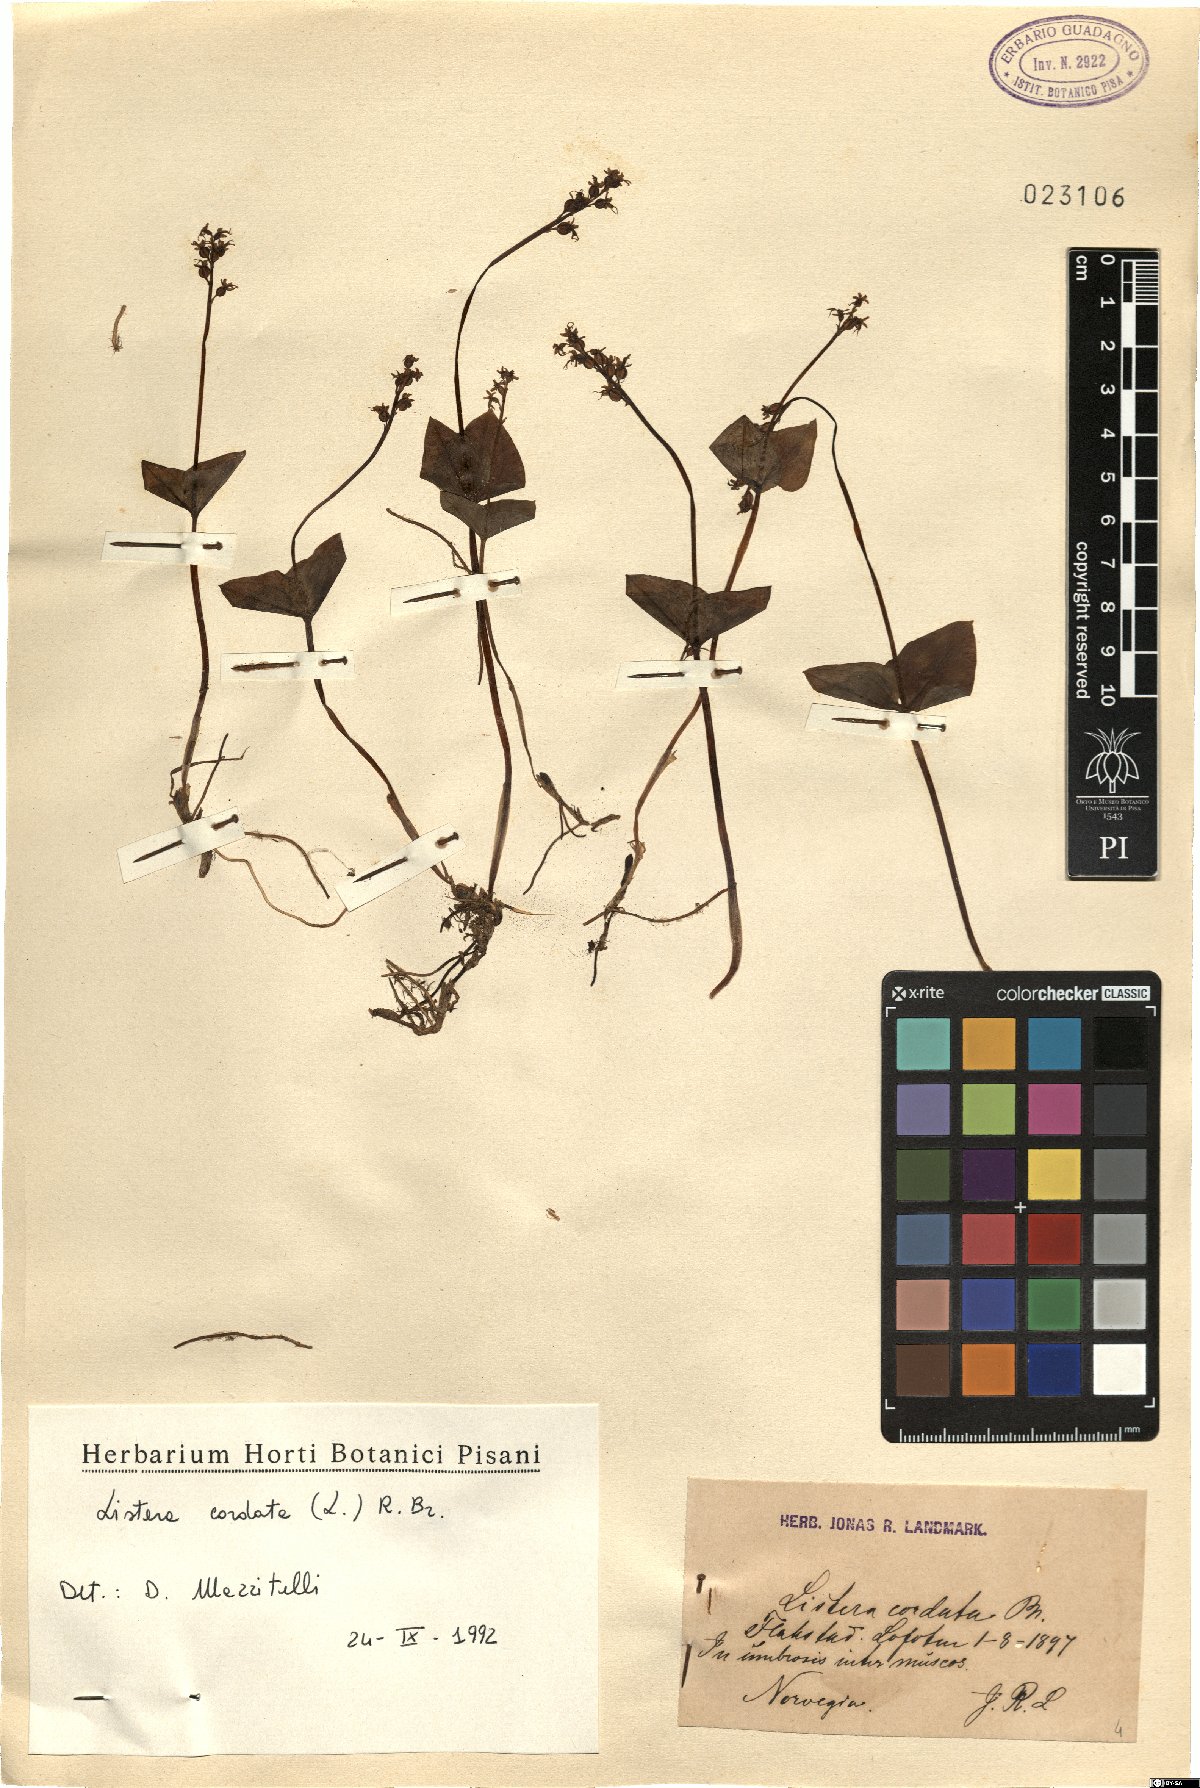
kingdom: Plantae
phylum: Tracheophyta
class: Liliopsida
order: Asparagales
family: Orchidaceae
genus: Neottia
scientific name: Neottia cordata
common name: Lesser twayblade
